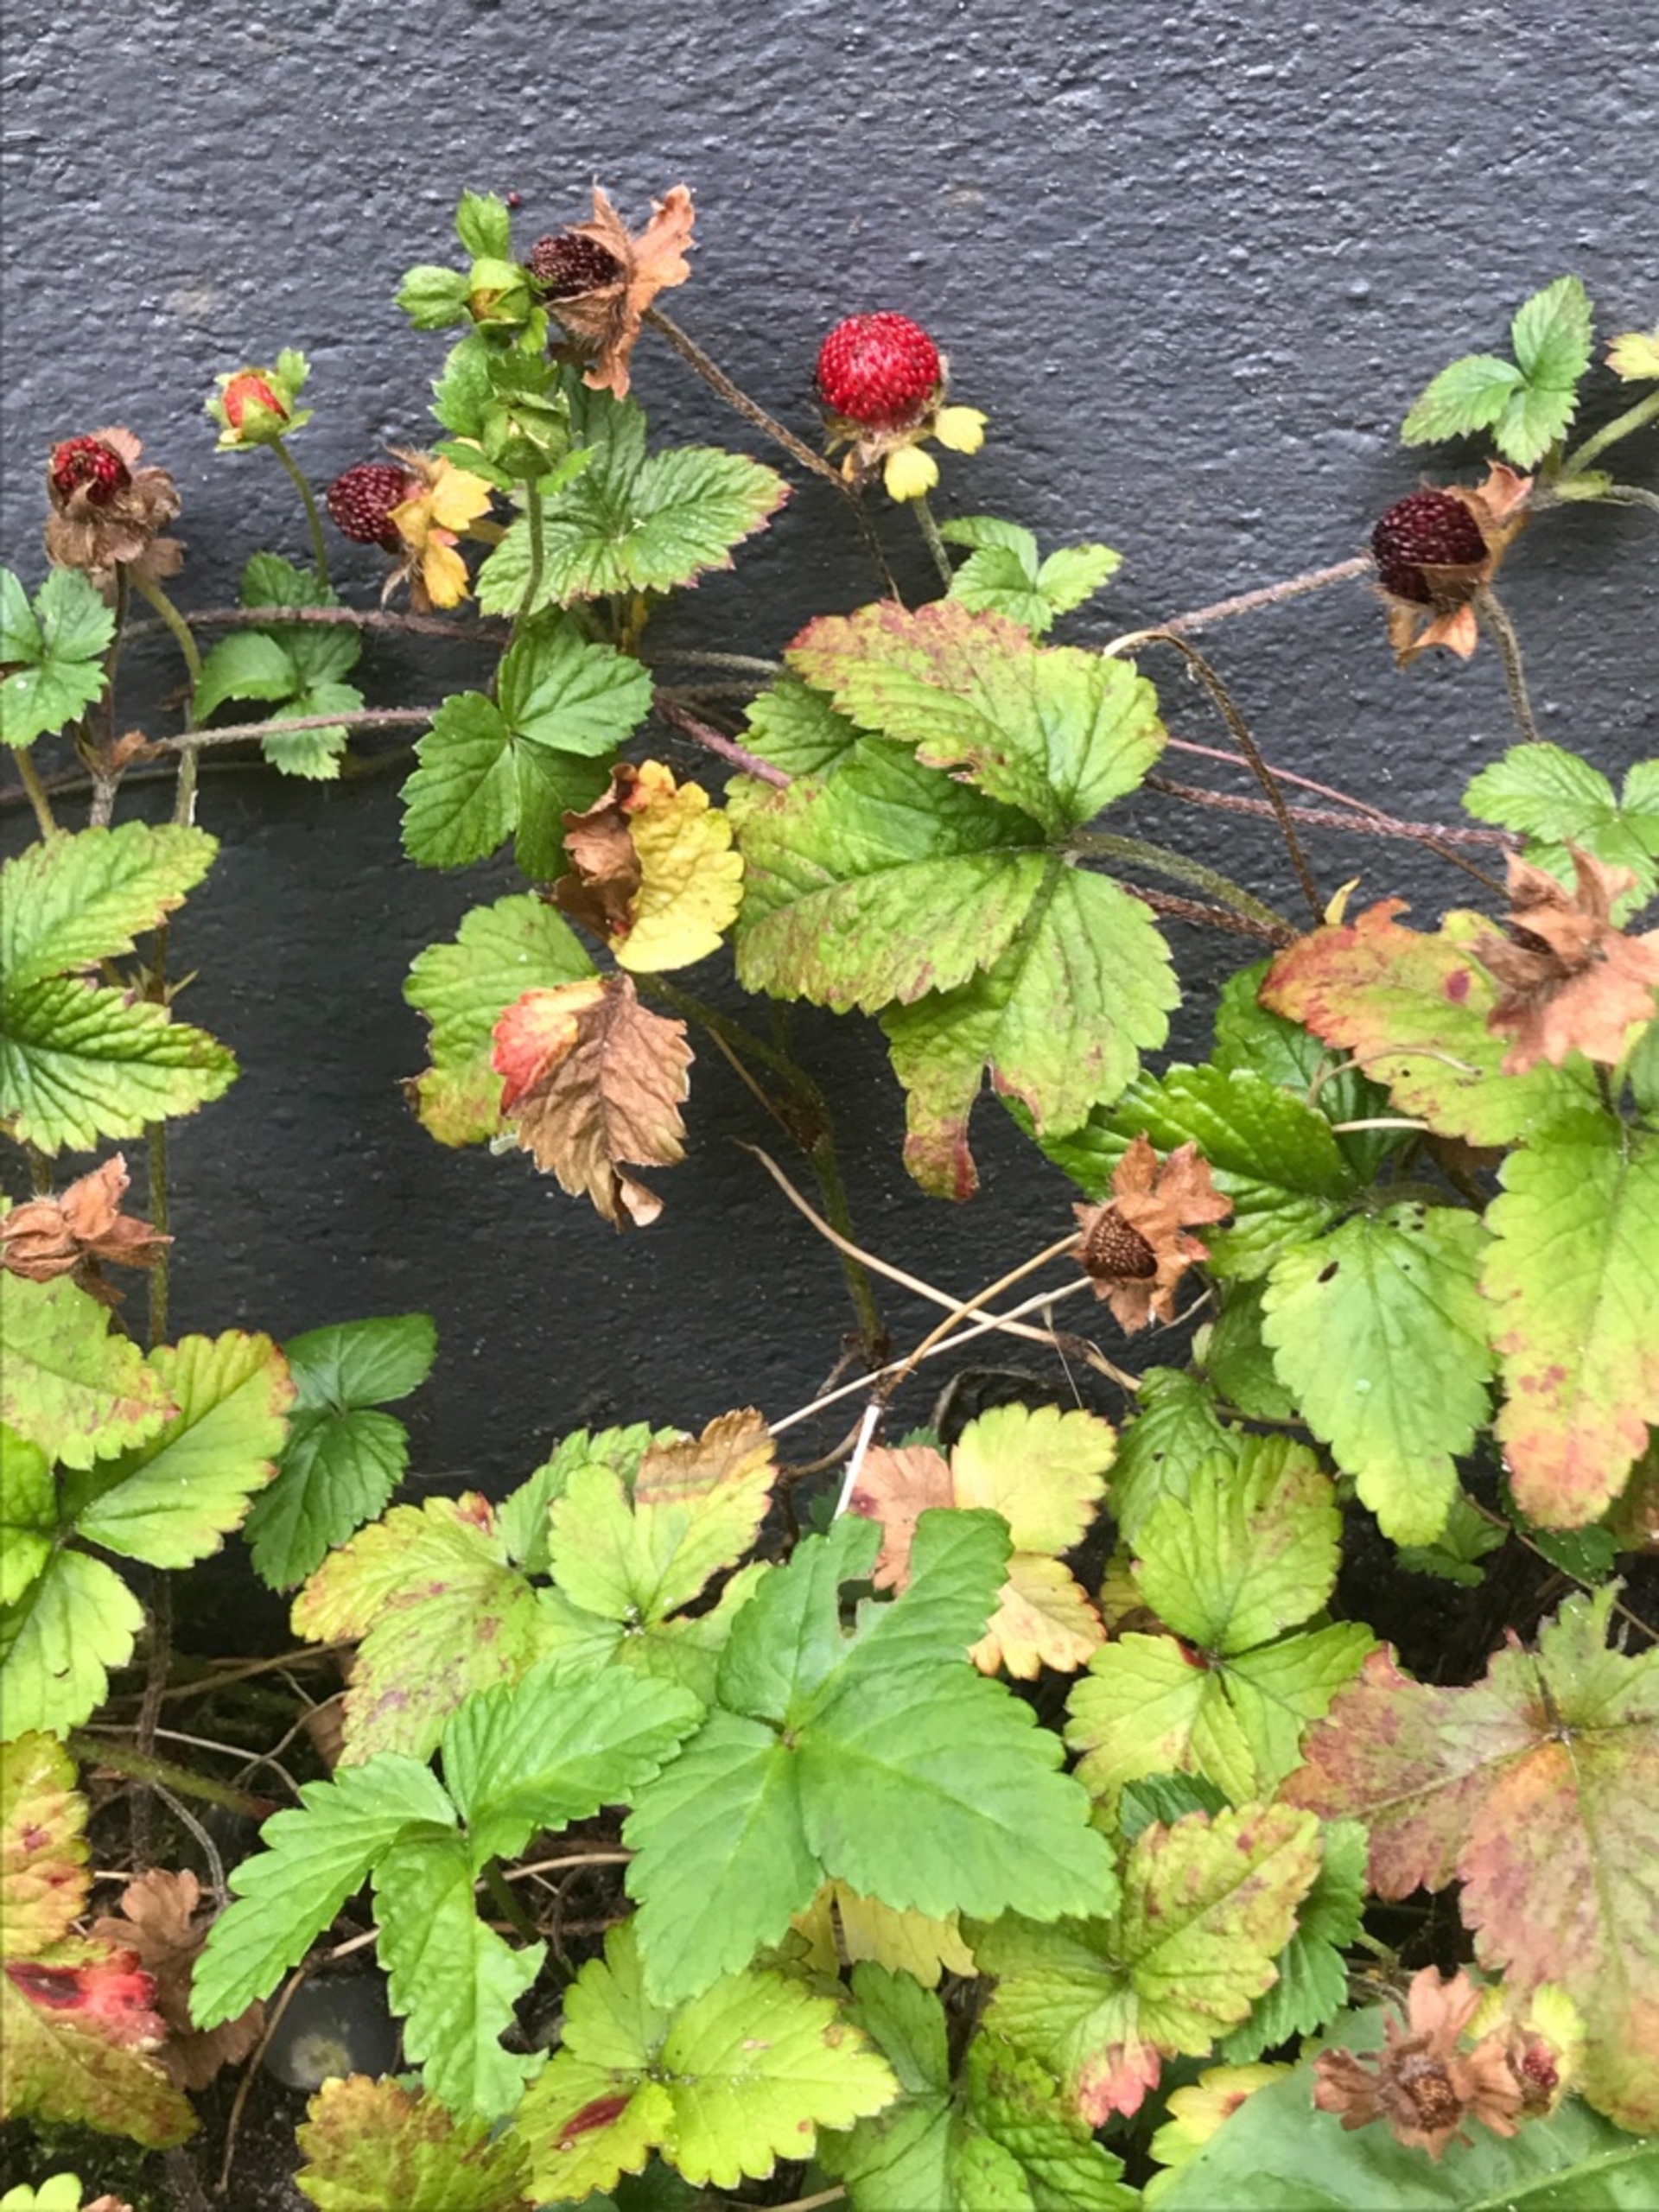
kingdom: Plantae
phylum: Tracheophyta
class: Magnoliopsida
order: Rosales
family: Rosaceae
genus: Potentilla
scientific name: Potentilla indica
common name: Indisk jordbær
